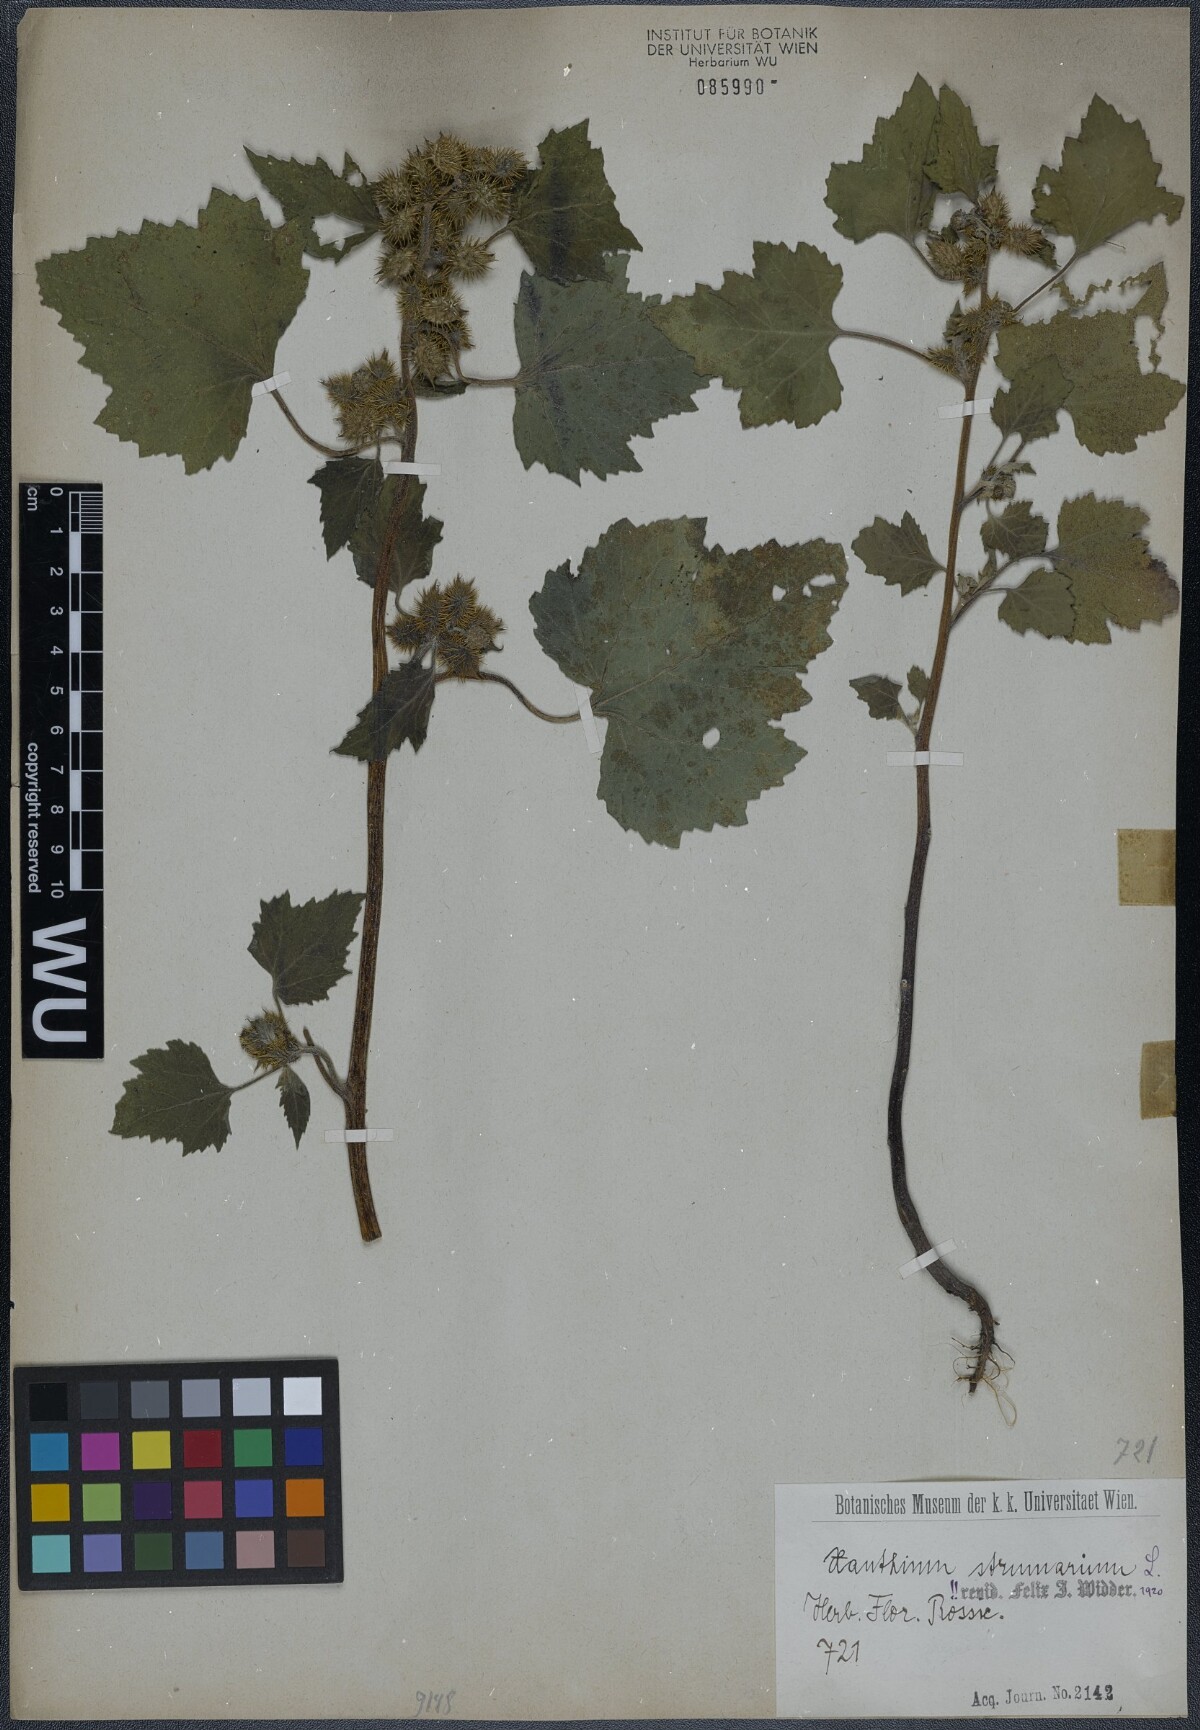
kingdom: Plantae
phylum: Tracheophyta
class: Magnoliopsida
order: Asterales
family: Asteraceae
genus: Xanthium
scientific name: Xanthium strumarium
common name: Rough cocklebur
